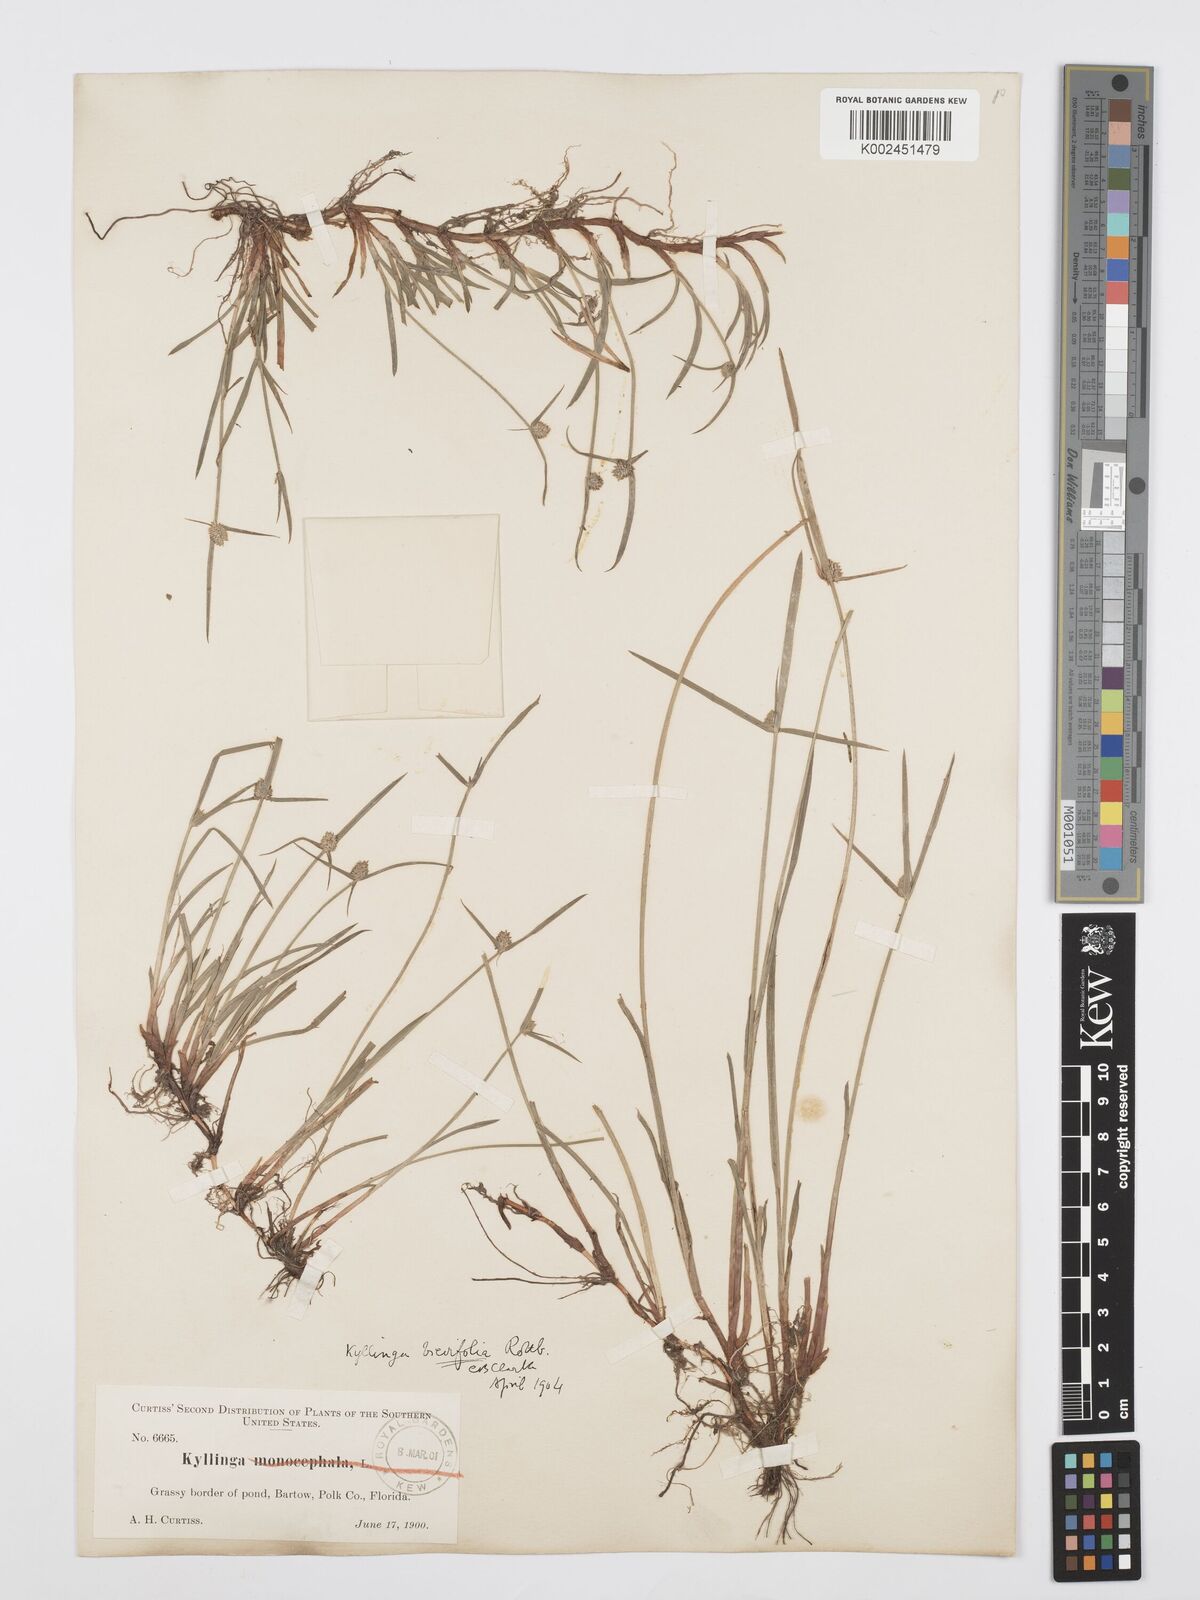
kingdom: Plantae
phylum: Tracheophyta
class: Liliopsida
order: Poales
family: Cyperaceae
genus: Cyperus
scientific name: Cyperus brevifolius
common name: Globe kyllinga
